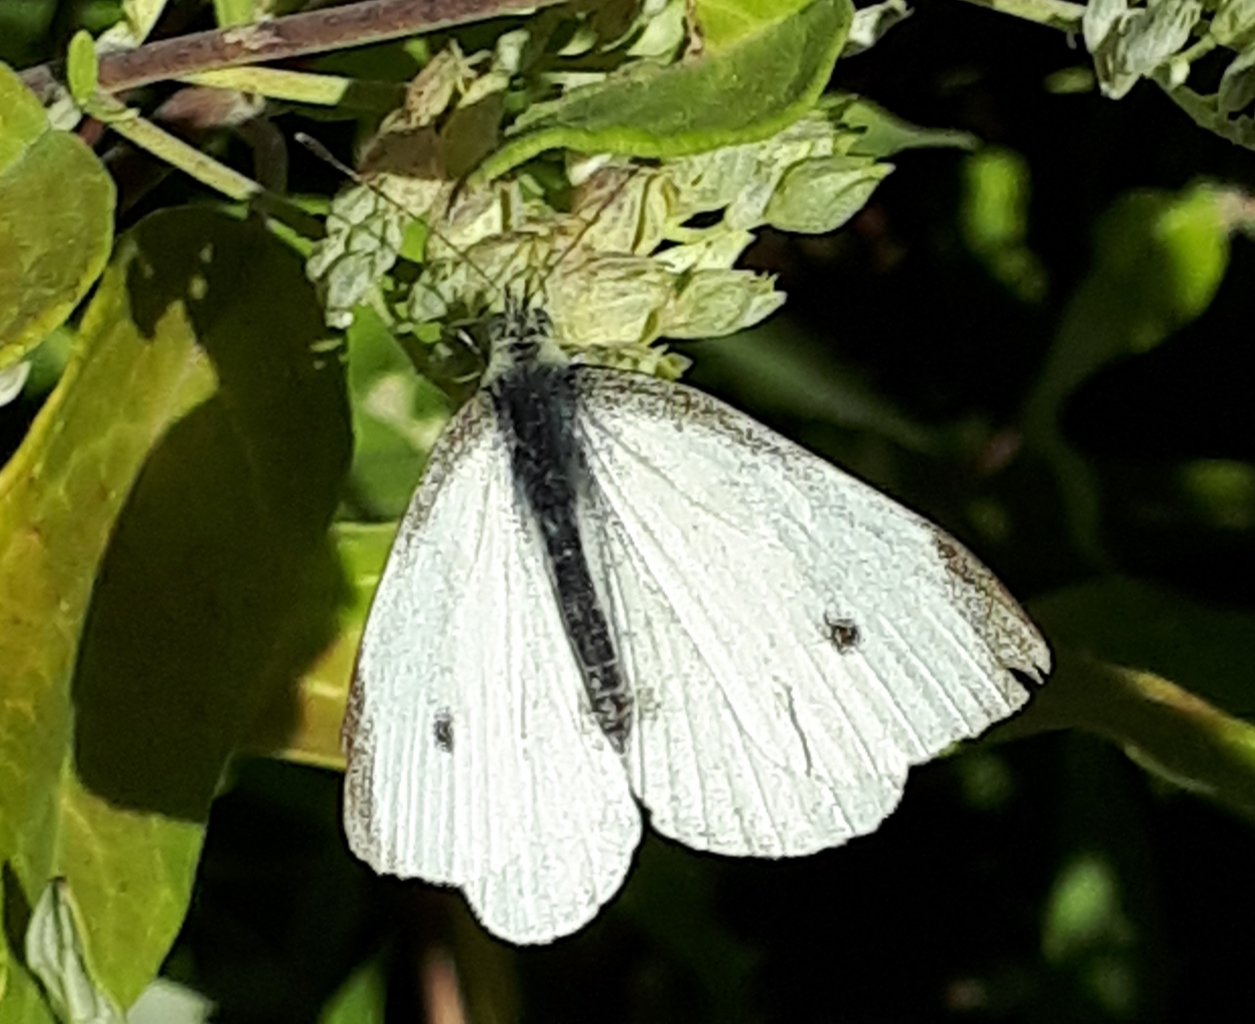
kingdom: Animalia
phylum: Arthropoda
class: Insecta
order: Lepidoptera
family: Pieridae
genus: Pieris
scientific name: Pieris rapae
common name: Cabbage White
